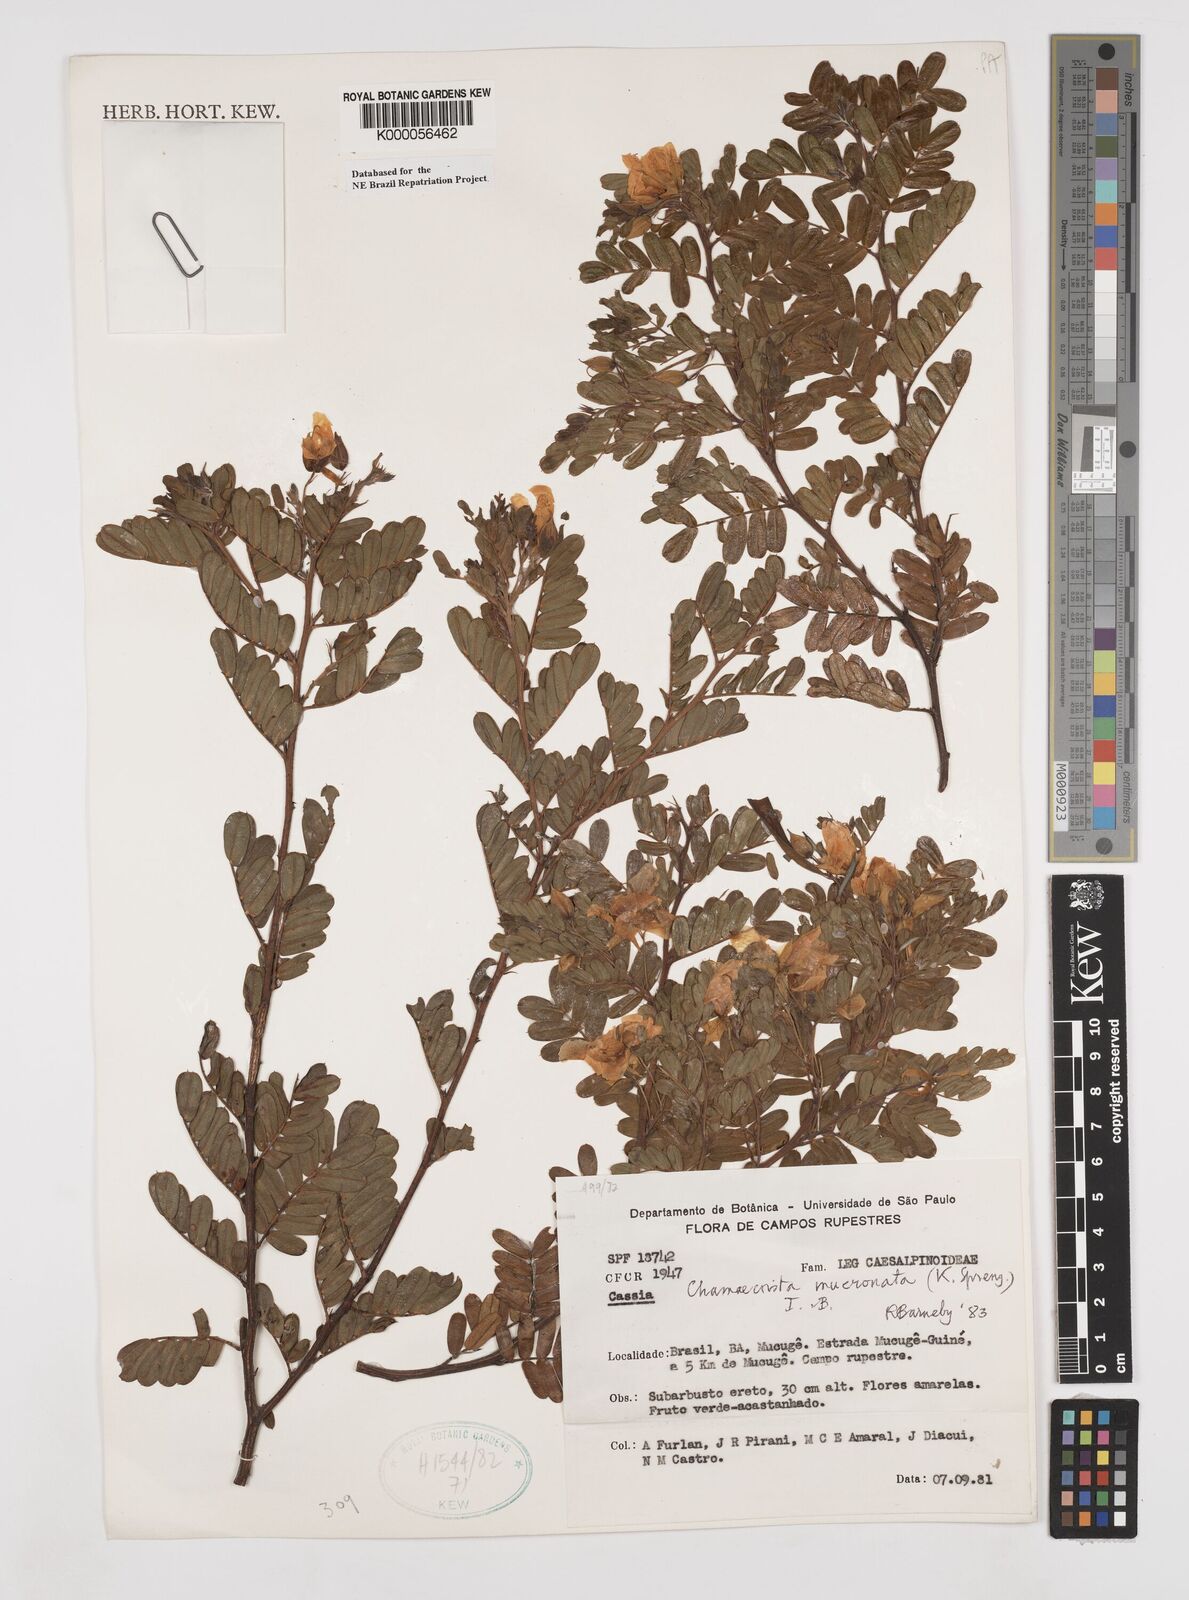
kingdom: Plantae
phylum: Tracheophyta
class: Magnoliopsida
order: Fabales
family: Fabaceae
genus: Chamaecrista
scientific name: Chamaecrista mucronata
